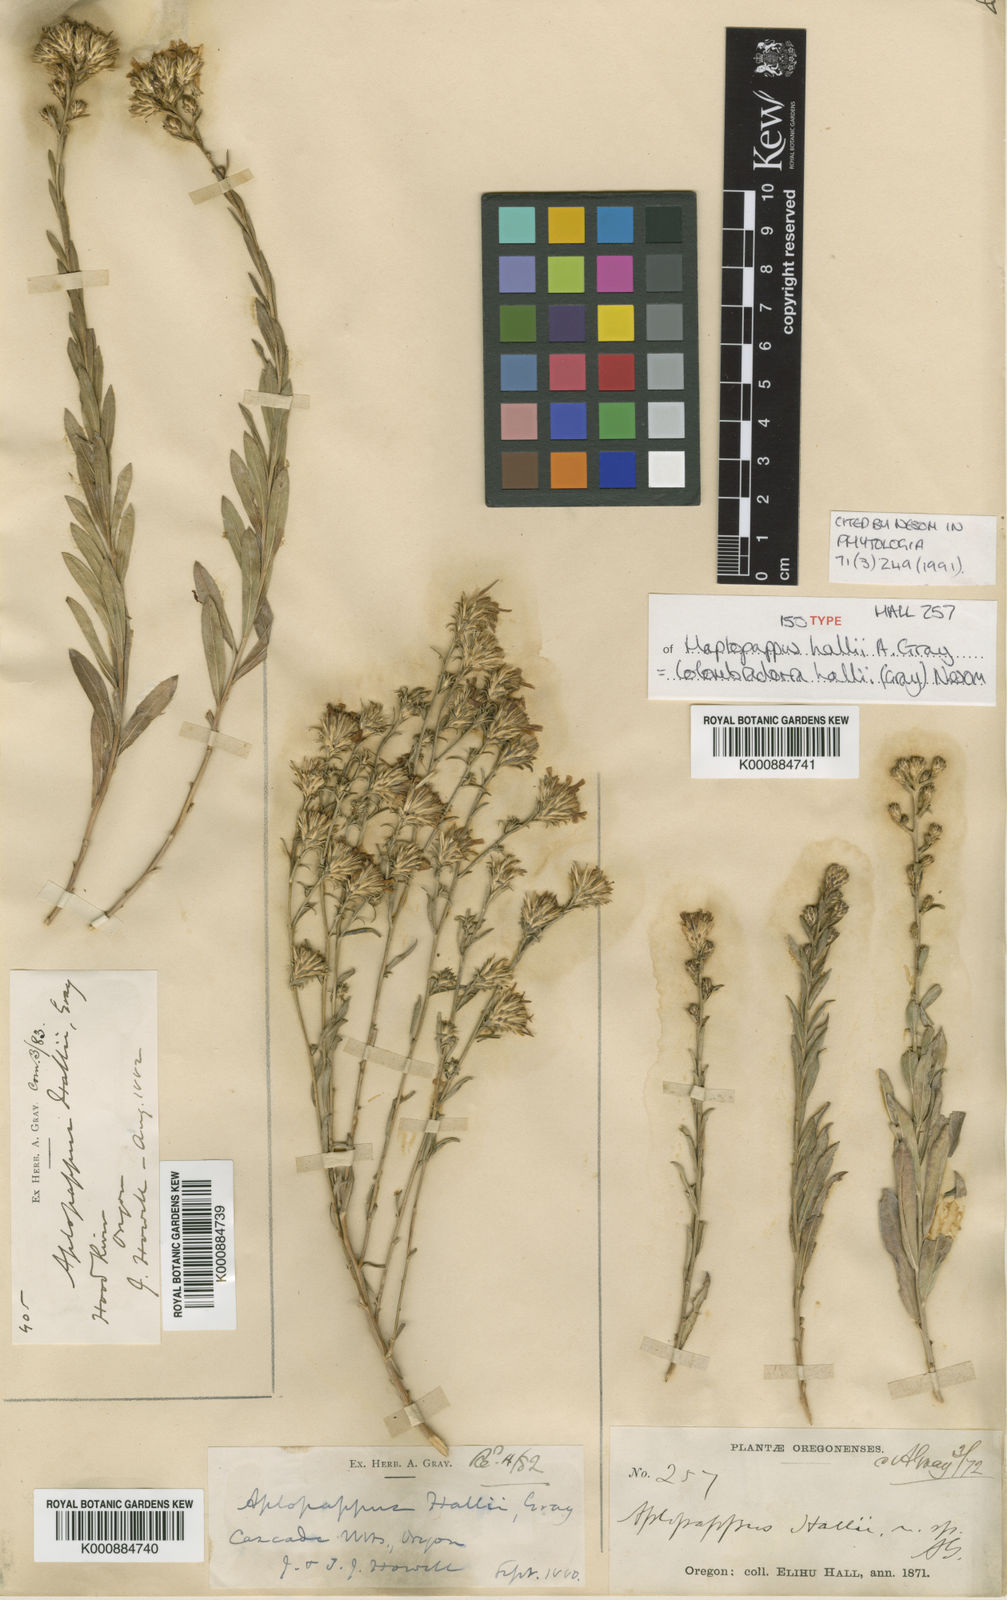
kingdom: Plantae
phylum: Tracheophyta
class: Magnoliopsida
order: Asterales
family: Asteraceae
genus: Columbiadoria
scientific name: Columbiadoria hallii
